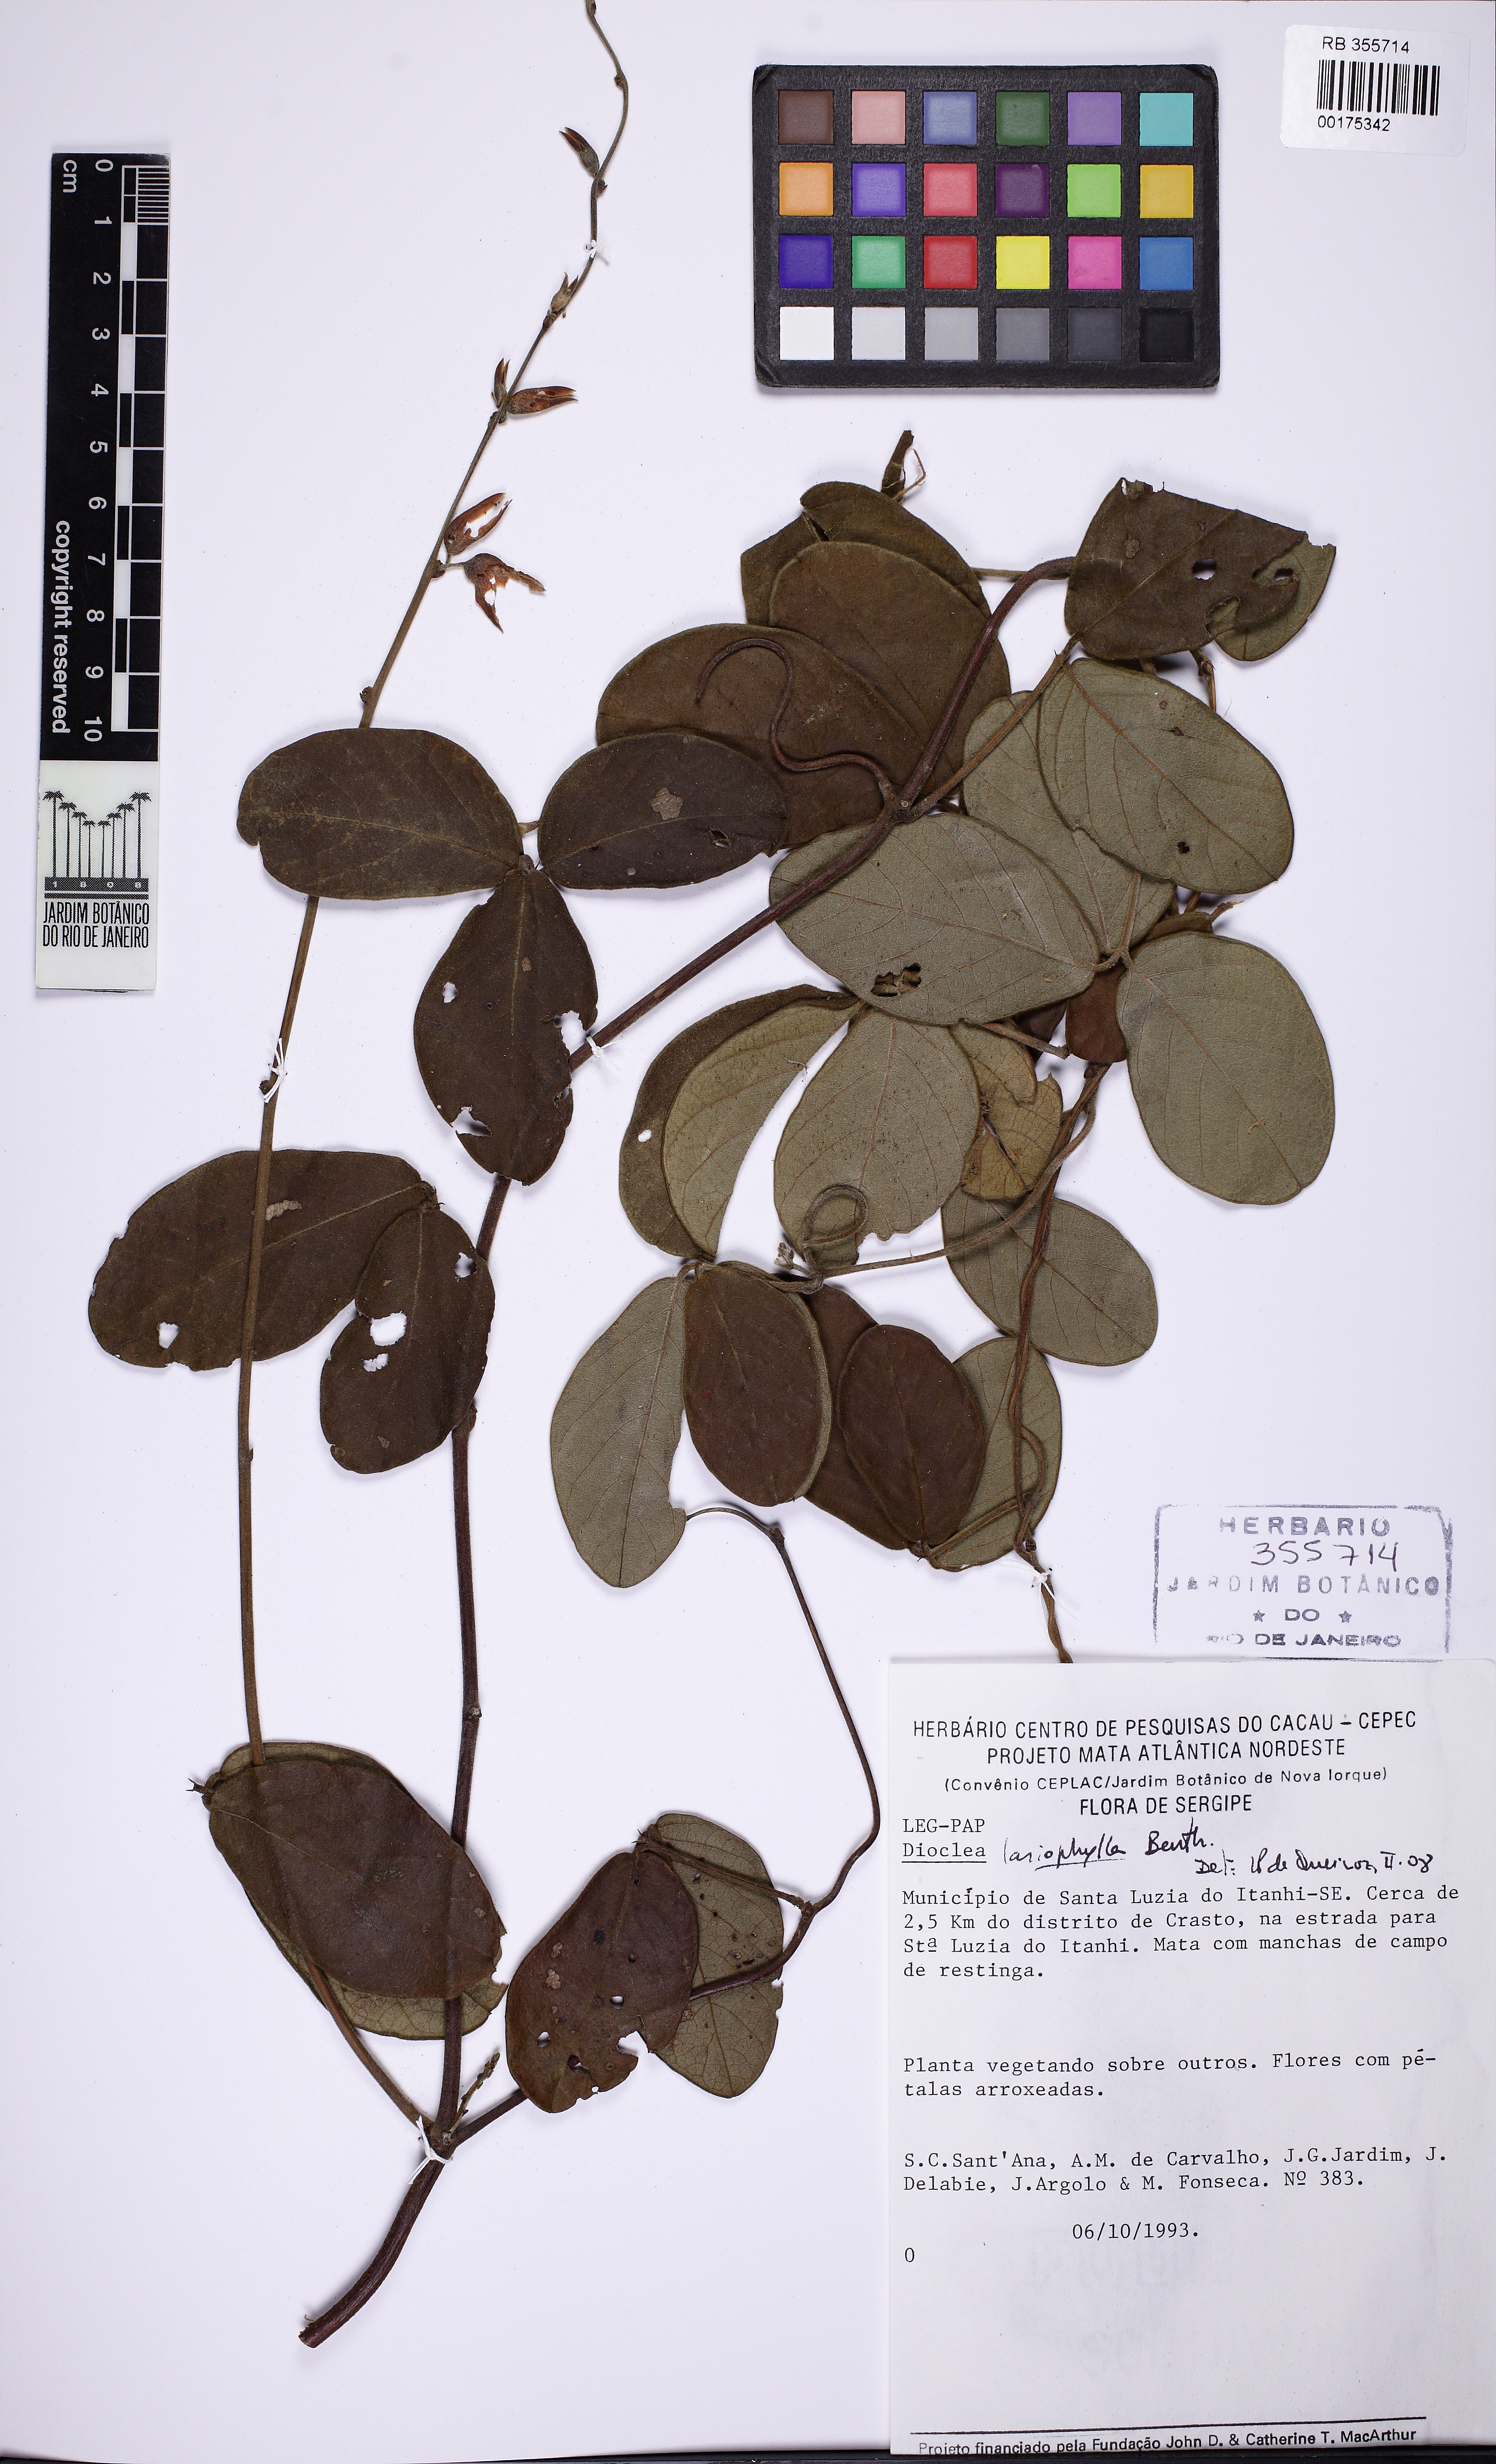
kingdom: Plantae
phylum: Tracheophyta
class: Magnoliopsida
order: Fabales
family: Fabaceae
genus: Macropsychanthus
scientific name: Macropsychanthus latifolius
